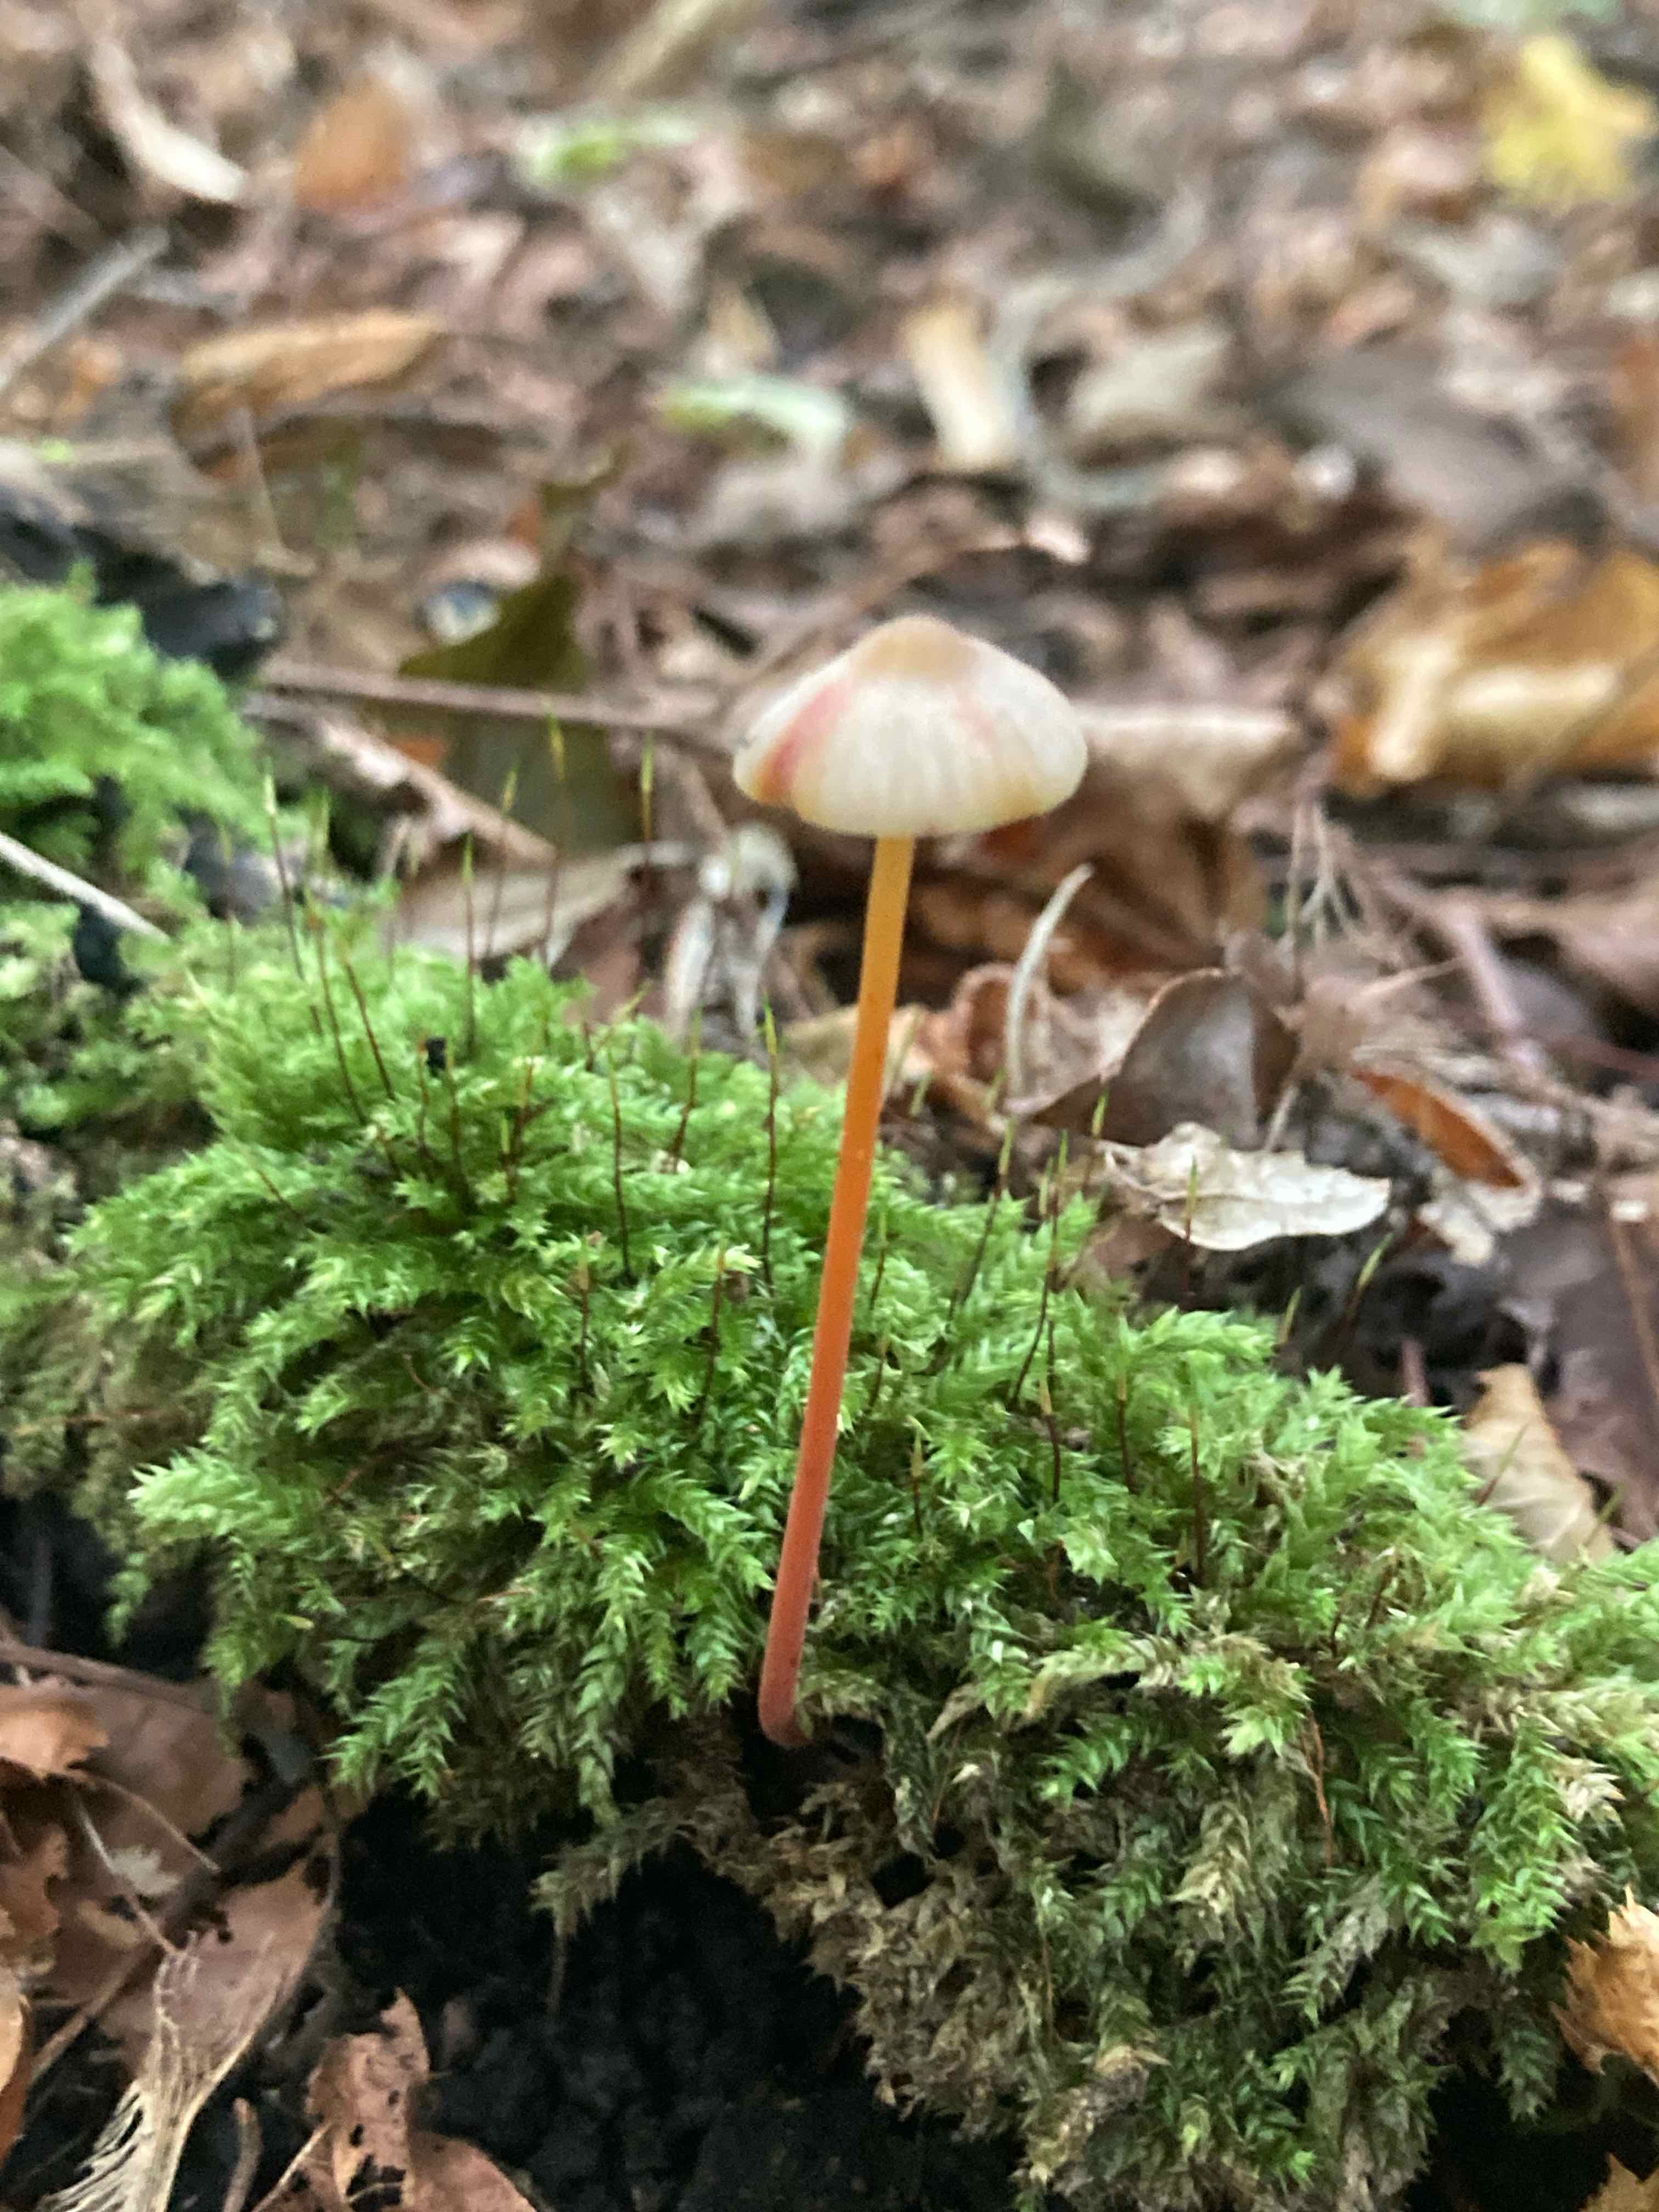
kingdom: Fungi
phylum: Basidiomycota
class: Agaricomycetes
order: Agaricales
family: Mycenaceae
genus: Mycena
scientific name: Mycena crocata
